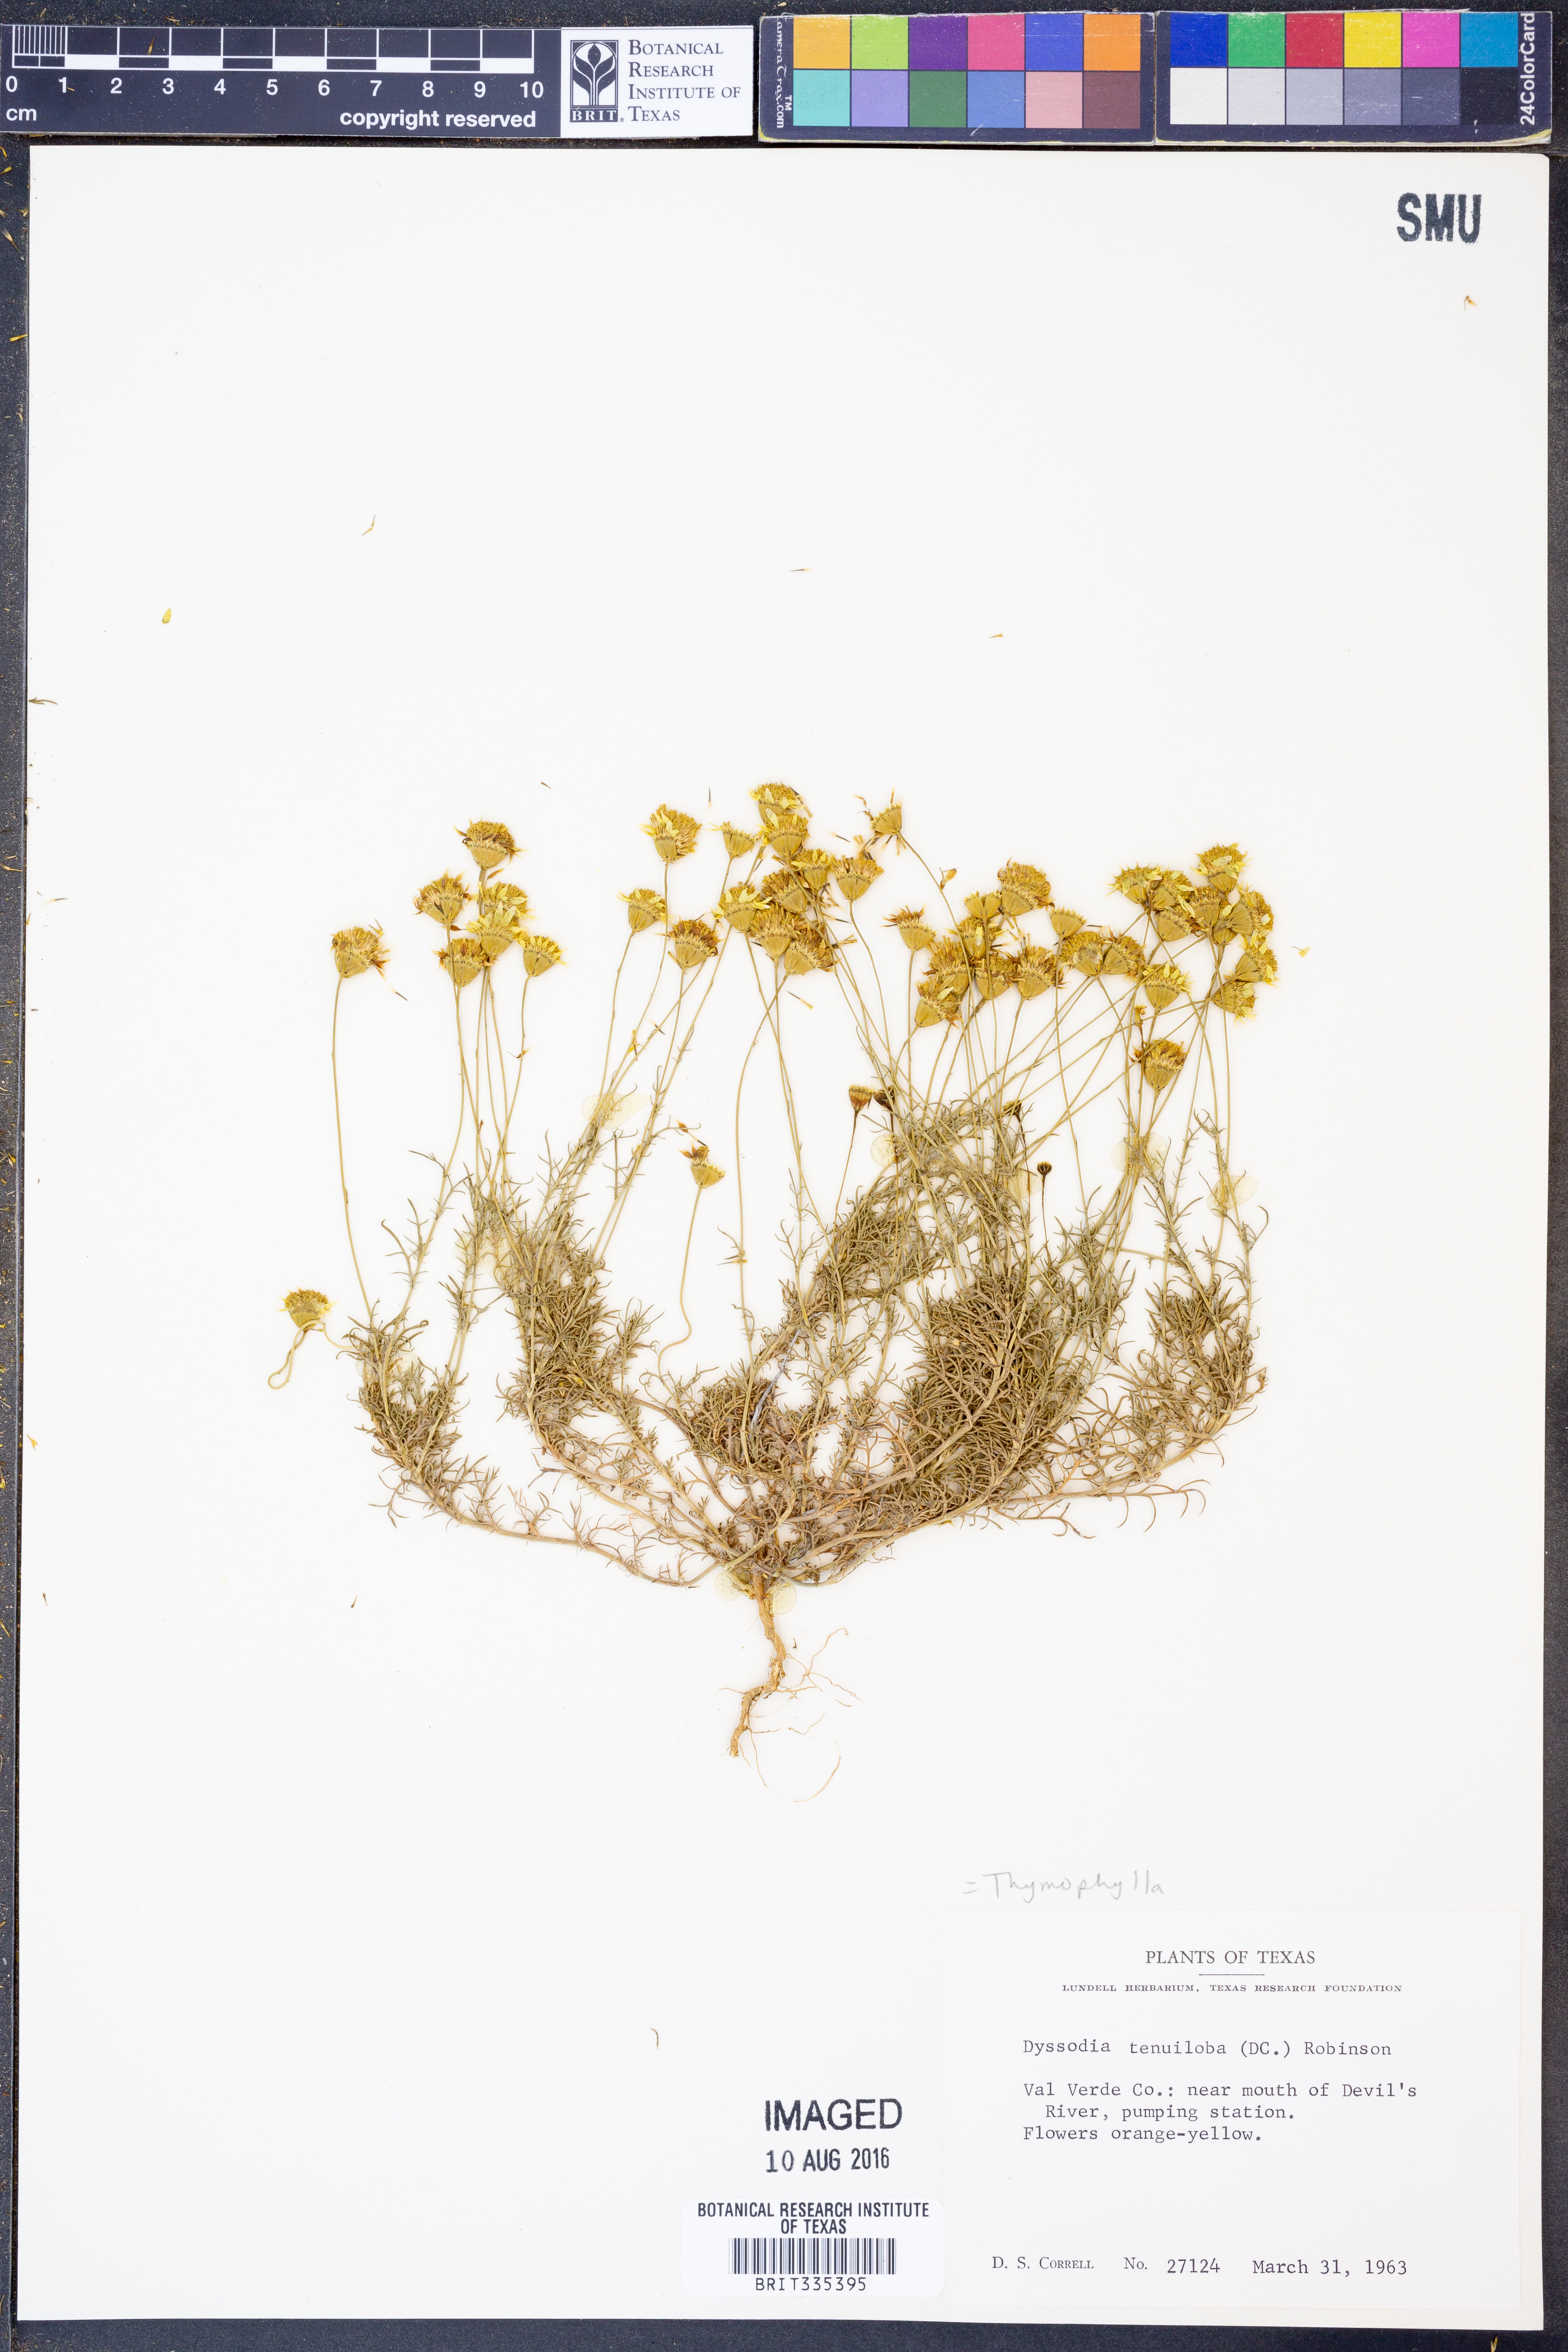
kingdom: Plantae
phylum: Tracheophyta
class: Magnoliopsida
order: Asterales
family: Asteraceae
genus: Thymophylla
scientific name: Thymophylla tenuiloba
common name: Dahlberg's daisy
